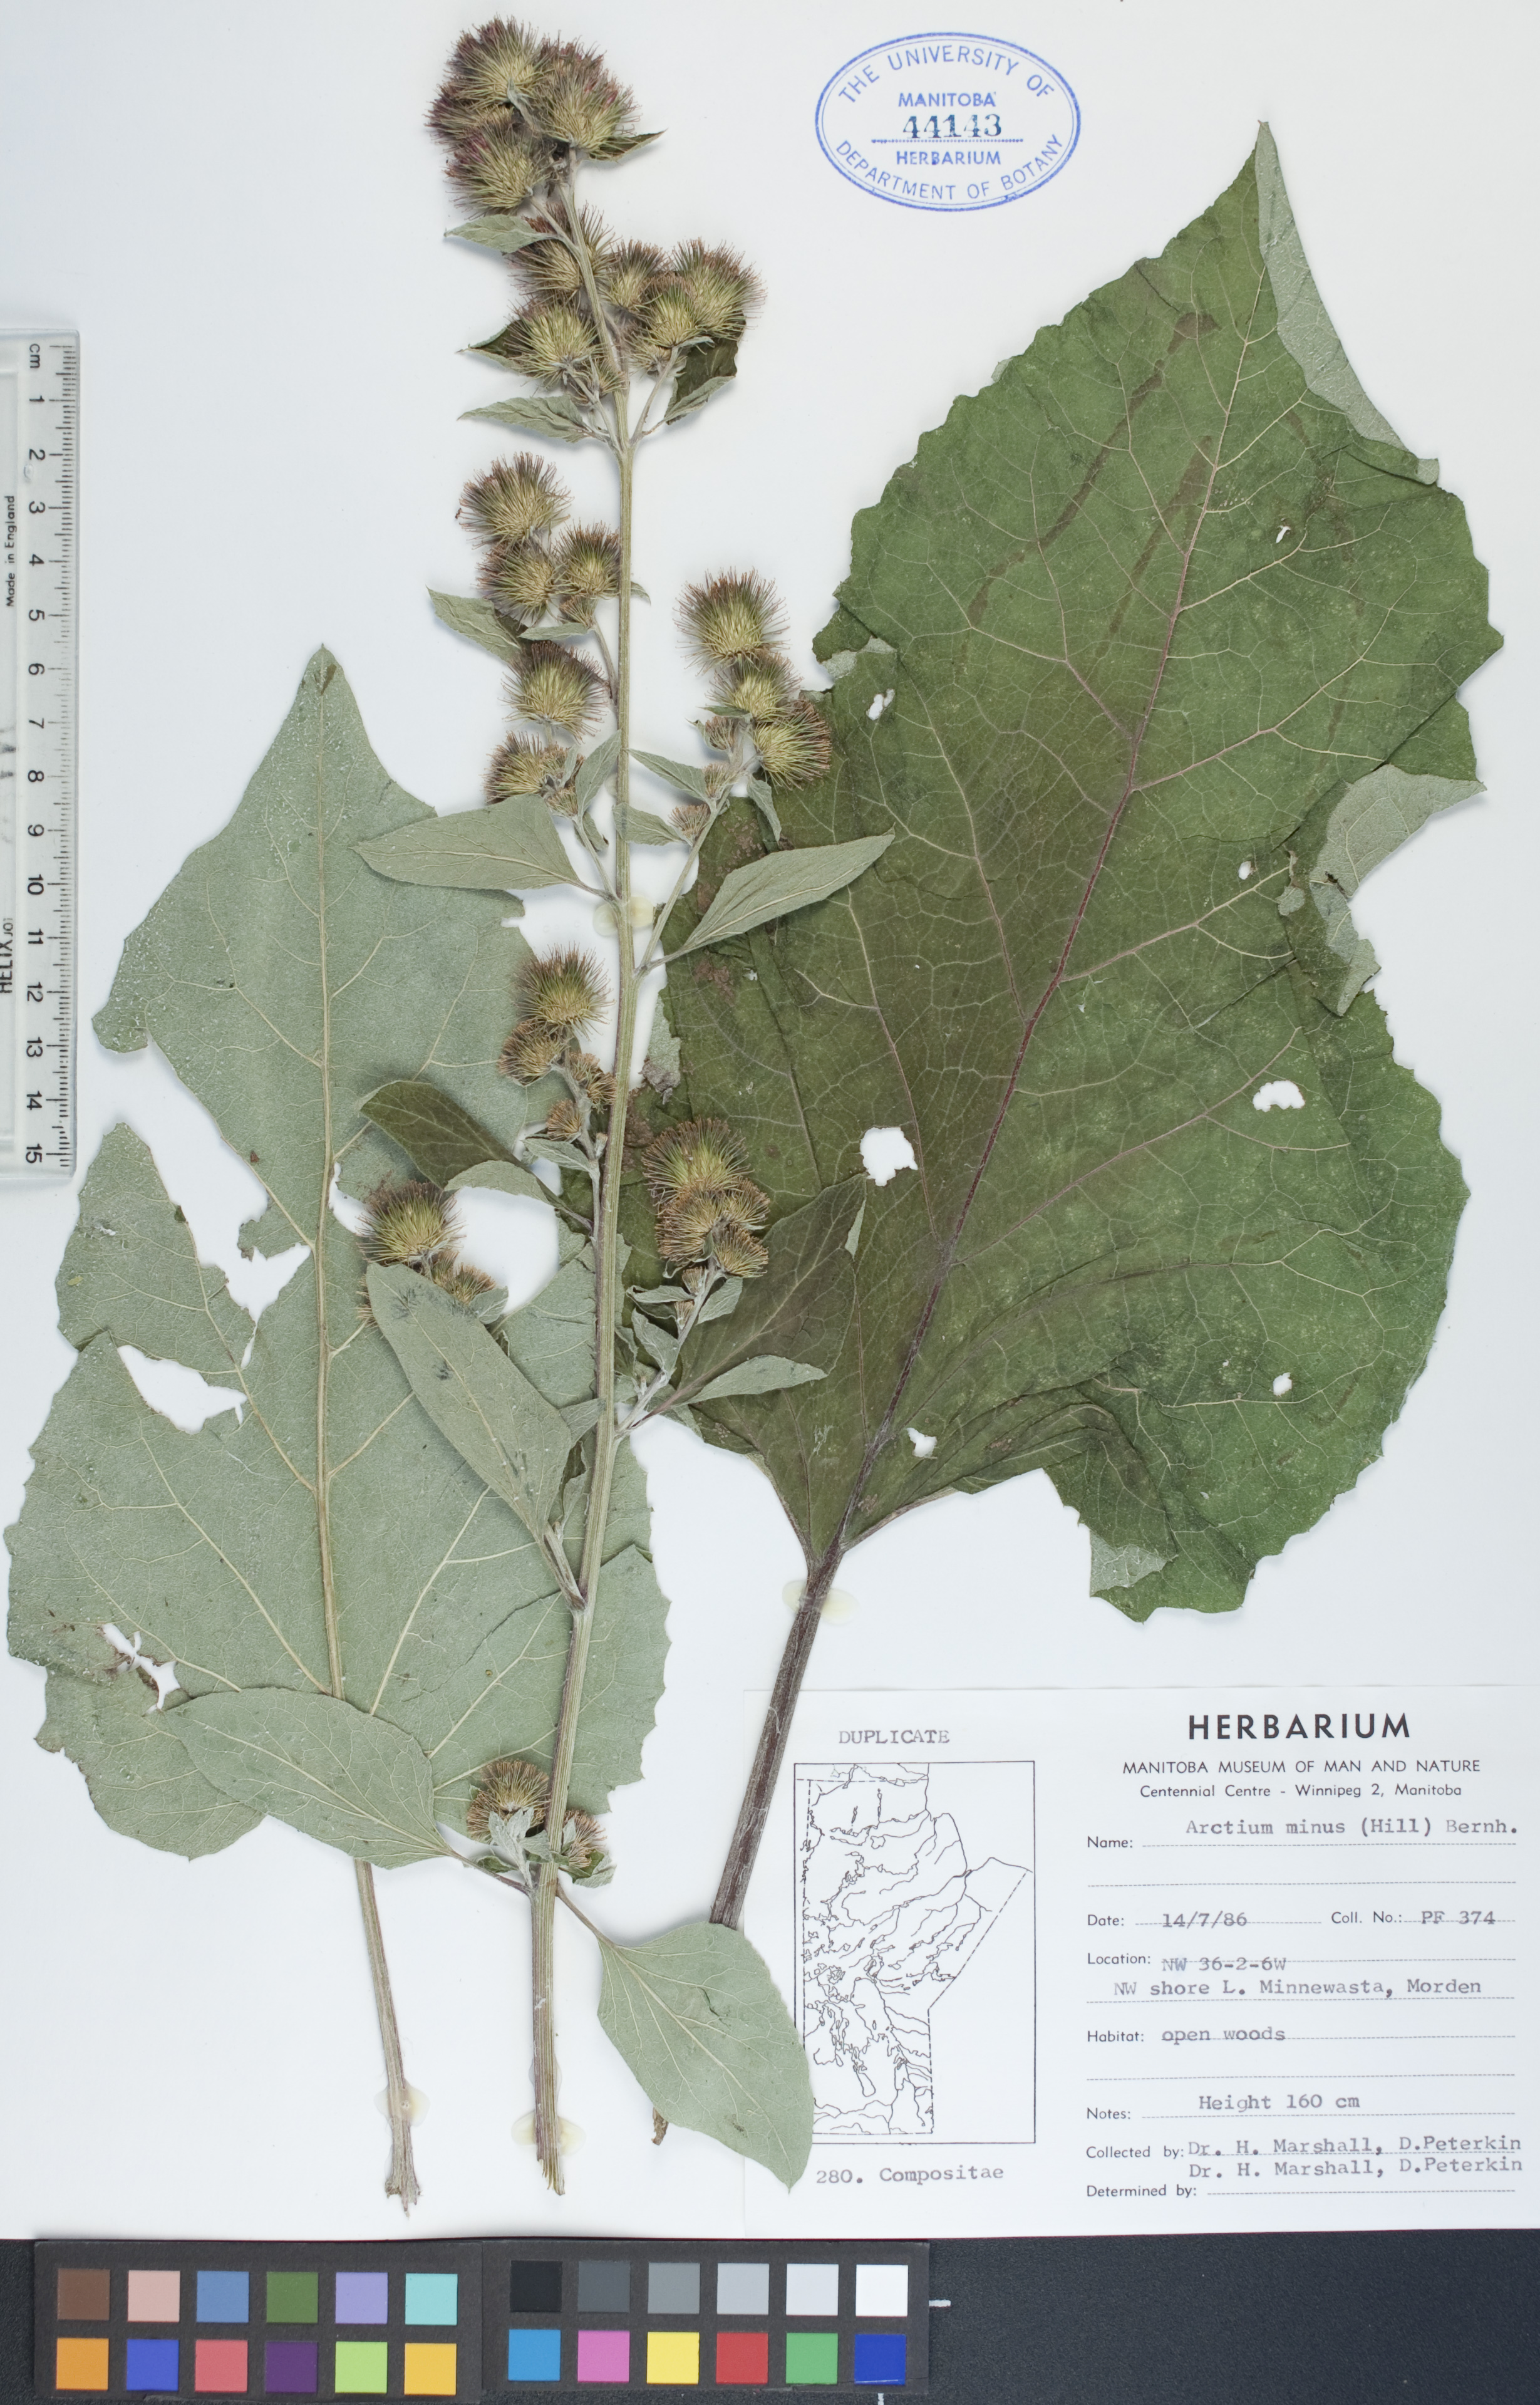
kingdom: Plantae
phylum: Tracheophyta
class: Magnoliopsida
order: Asterales
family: Asteraceae
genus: Arctium
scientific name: Arctium minus
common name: Lesser burdock
